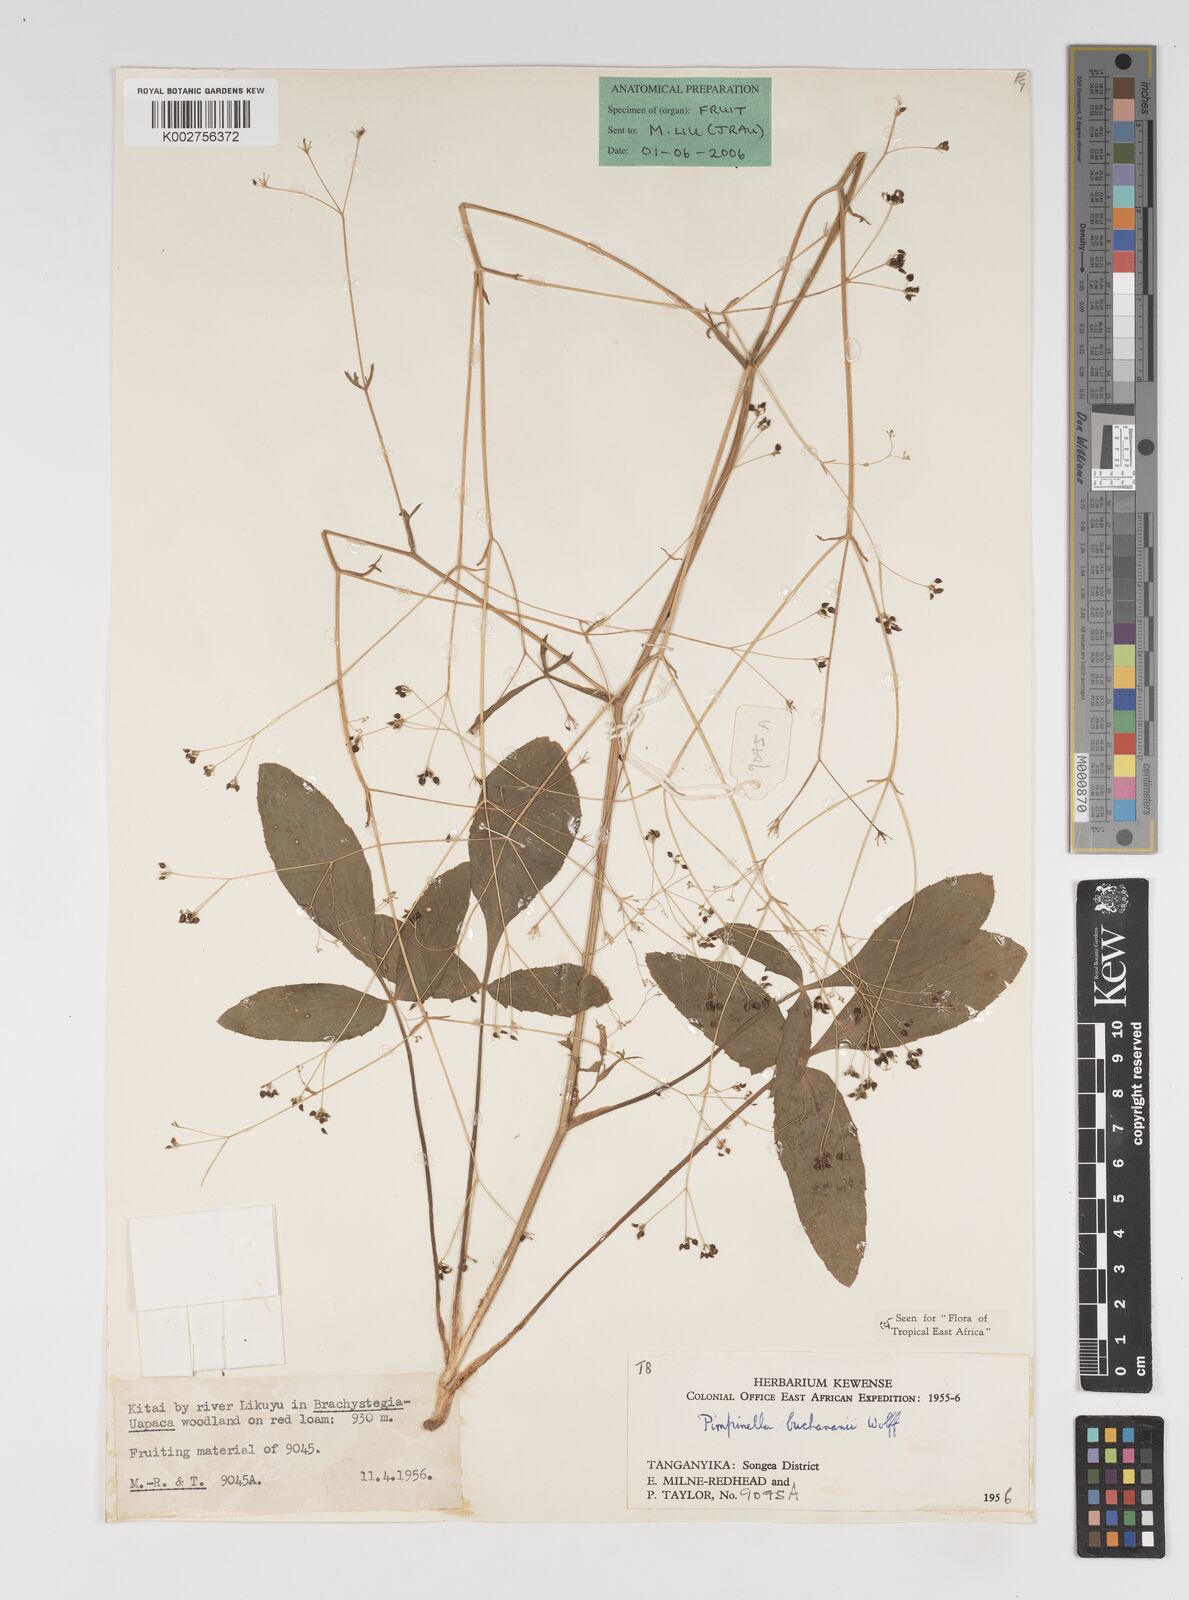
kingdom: Plantae
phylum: Tracheophyta
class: Magnoliopsida
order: Apiales
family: Apiaceae
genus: Pimpinella
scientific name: Pimpinella buchananii
